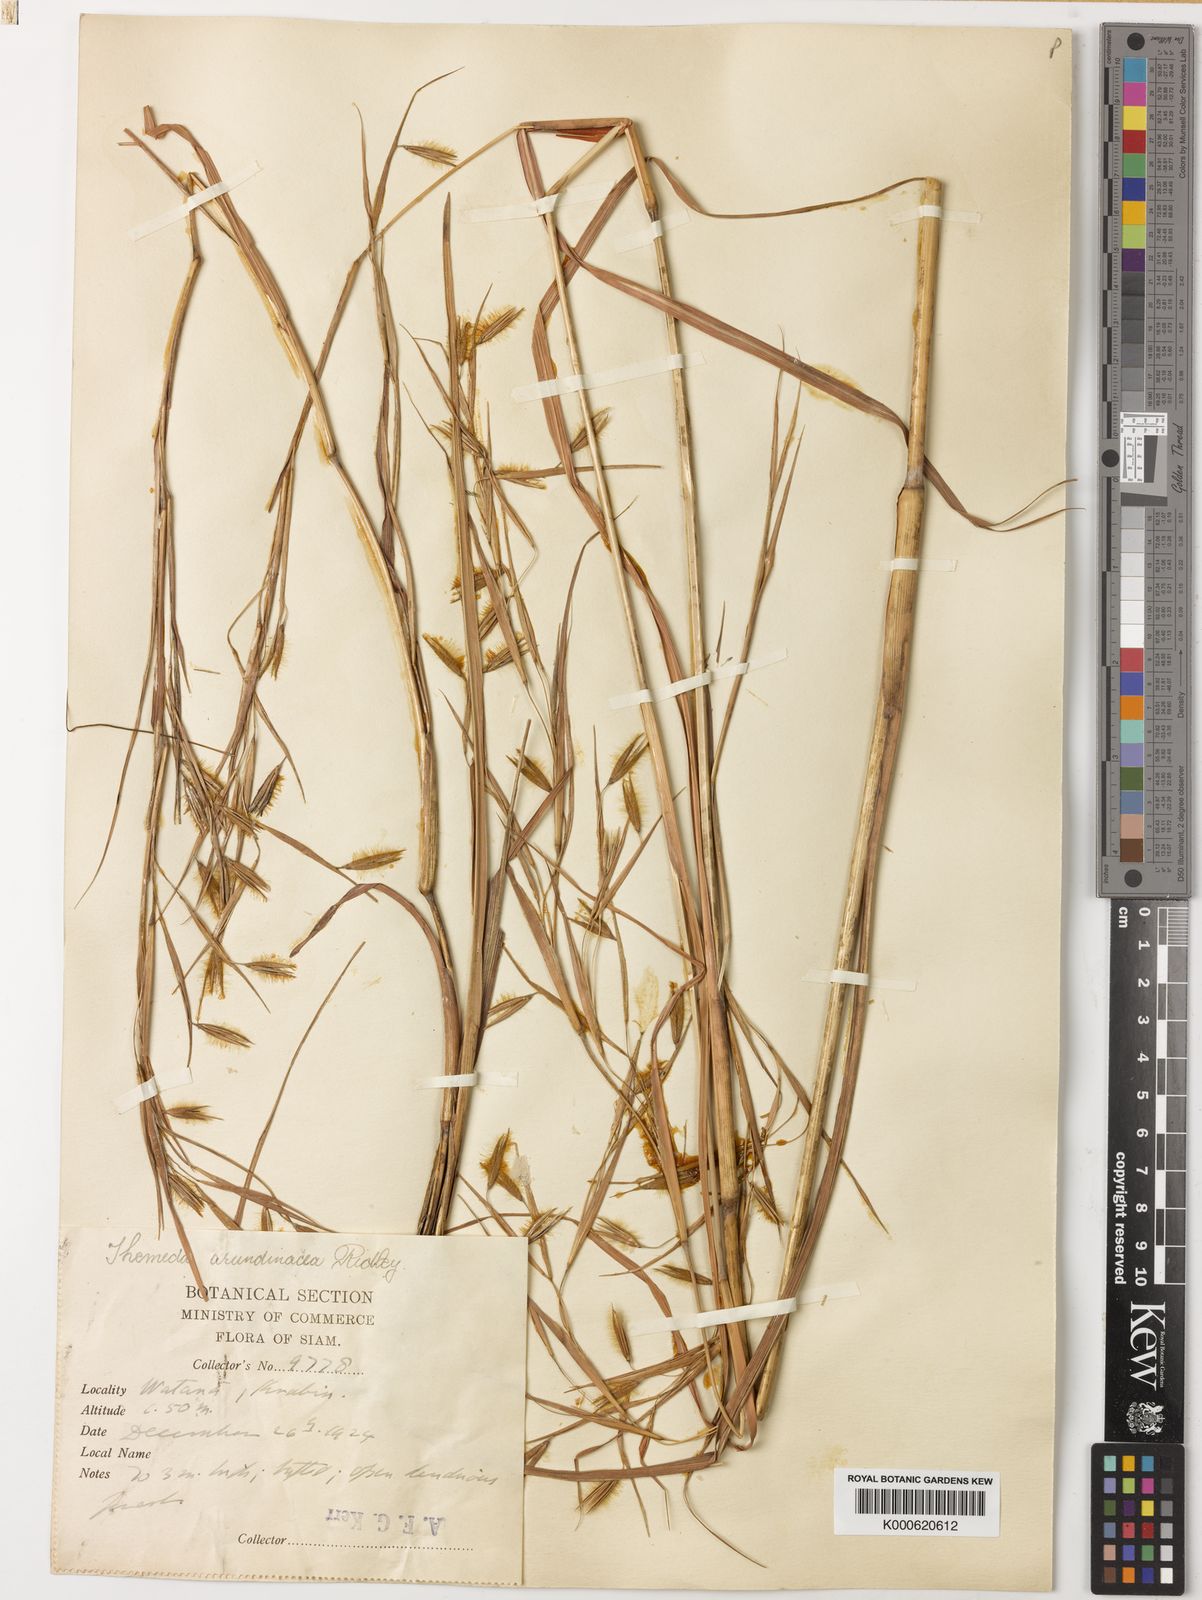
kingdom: Plantae
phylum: Tracheophyta
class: Liliopsida
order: Poales
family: Poaceae
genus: Themeda
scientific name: Themeda arundinacea
